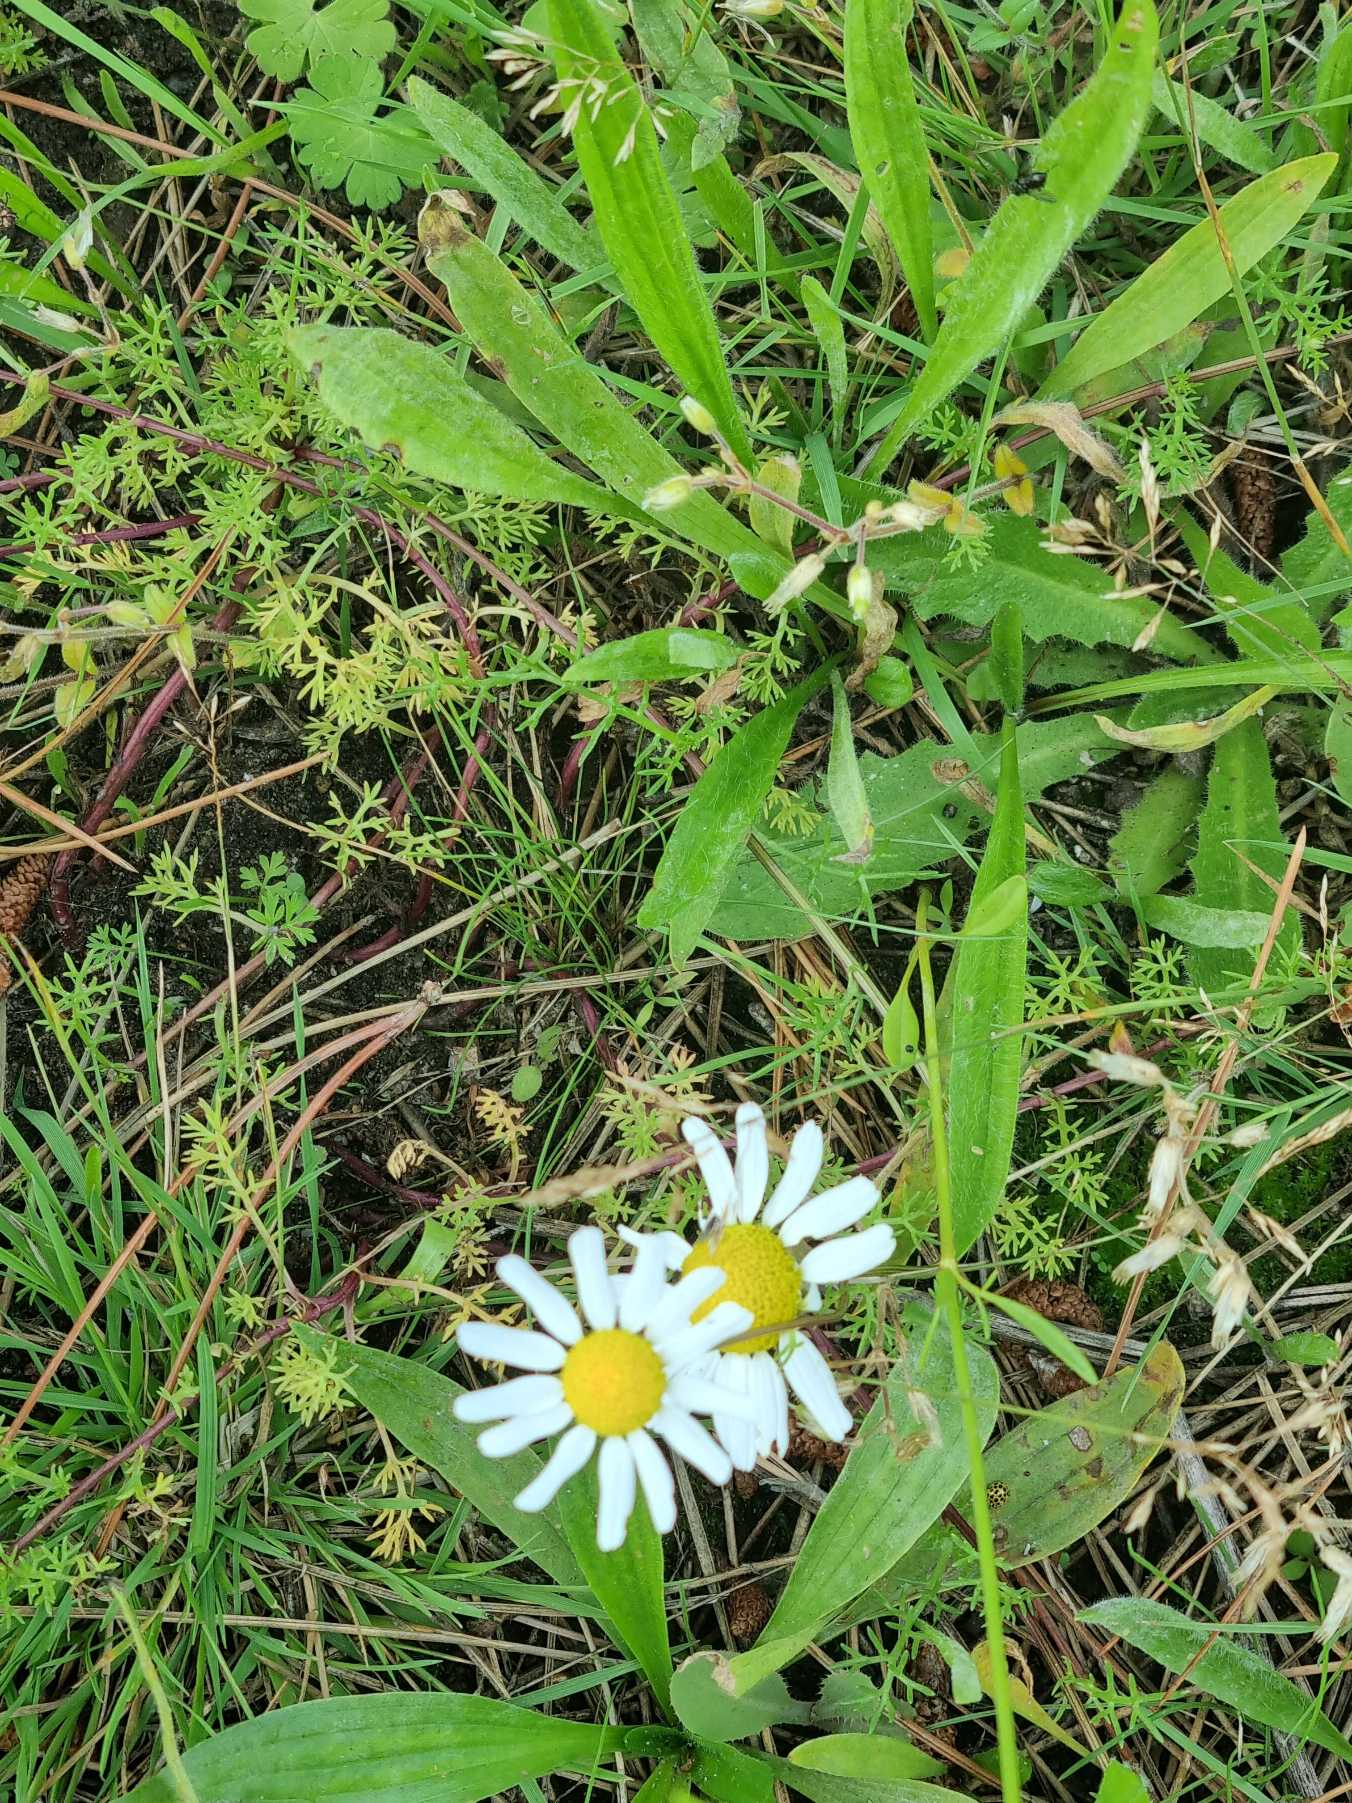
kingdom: Plantae
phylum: Tracheophyta
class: Magnoliopsida
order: Asterales
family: Asteraceae
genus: Tripleurospermum
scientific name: Tripleurospermum maritimum
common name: Strand-kamille
